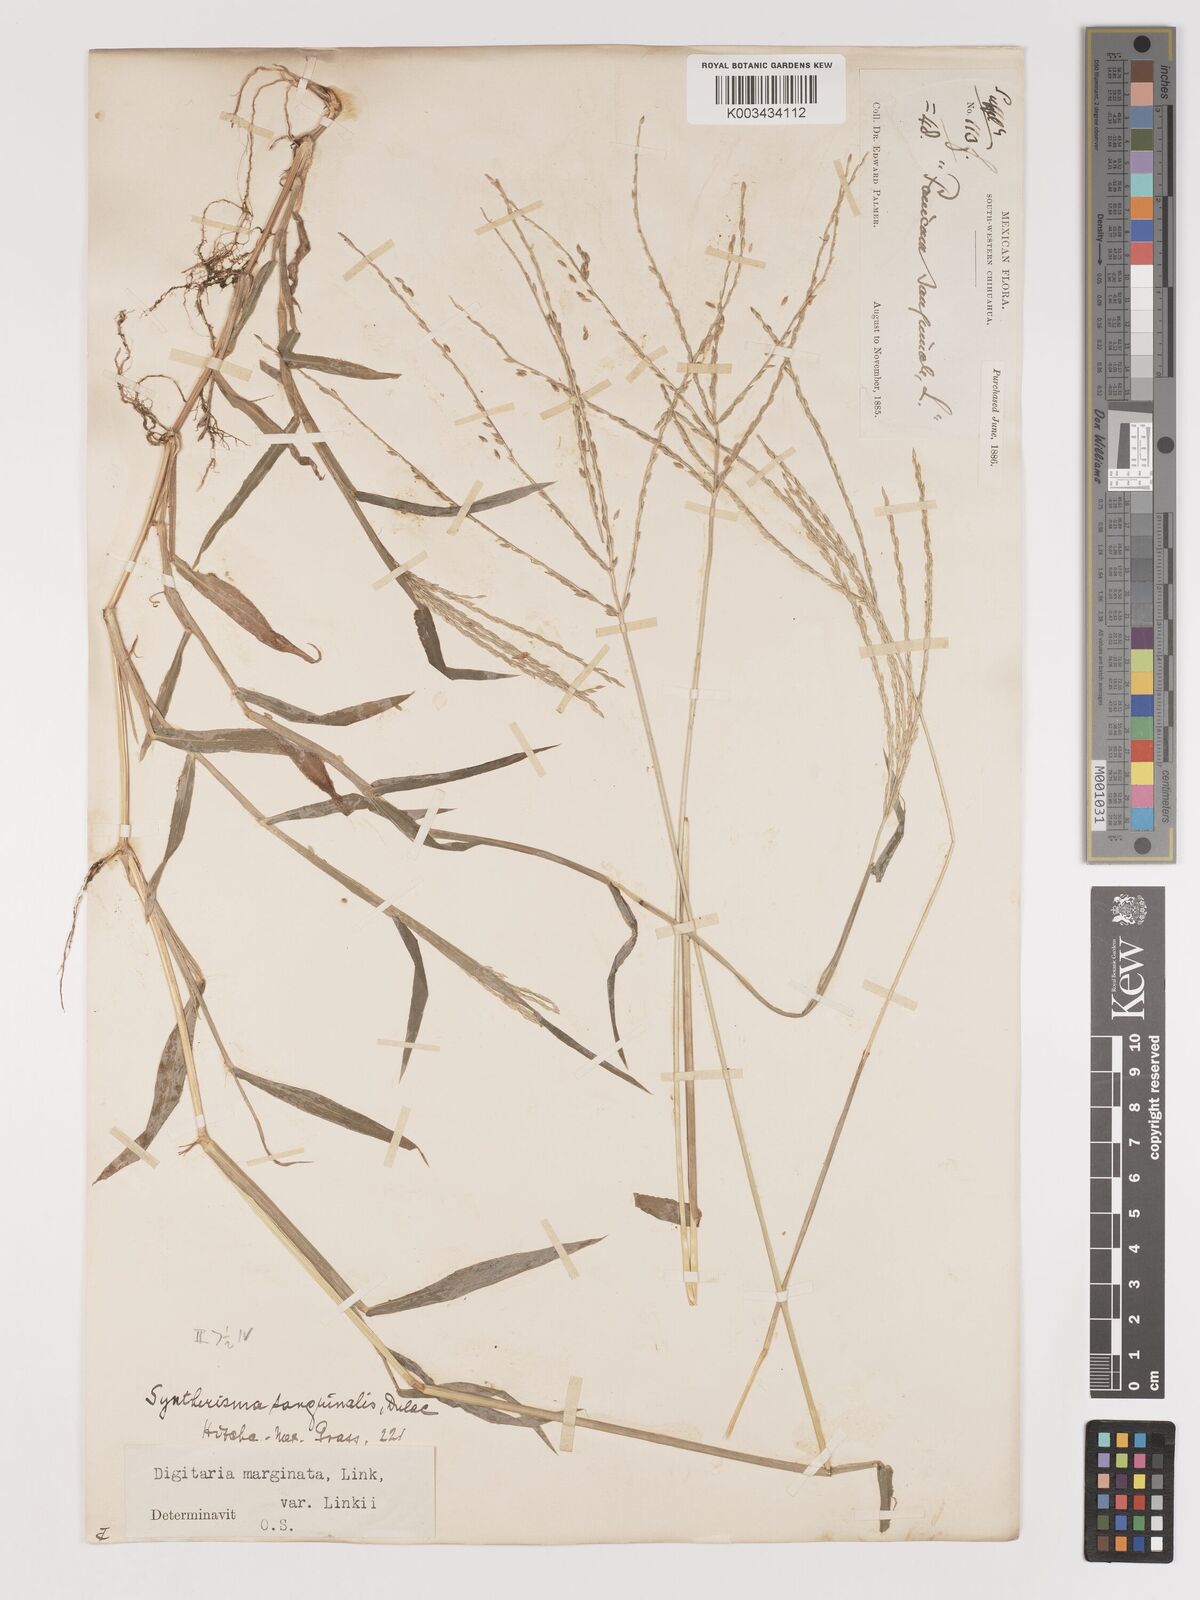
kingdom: Plantae
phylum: Tracheophyta
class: Liliopsida
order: Poales
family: Poaceae
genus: Digitaria
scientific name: Digitaria ciliaris
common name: Tropical finger-grass
